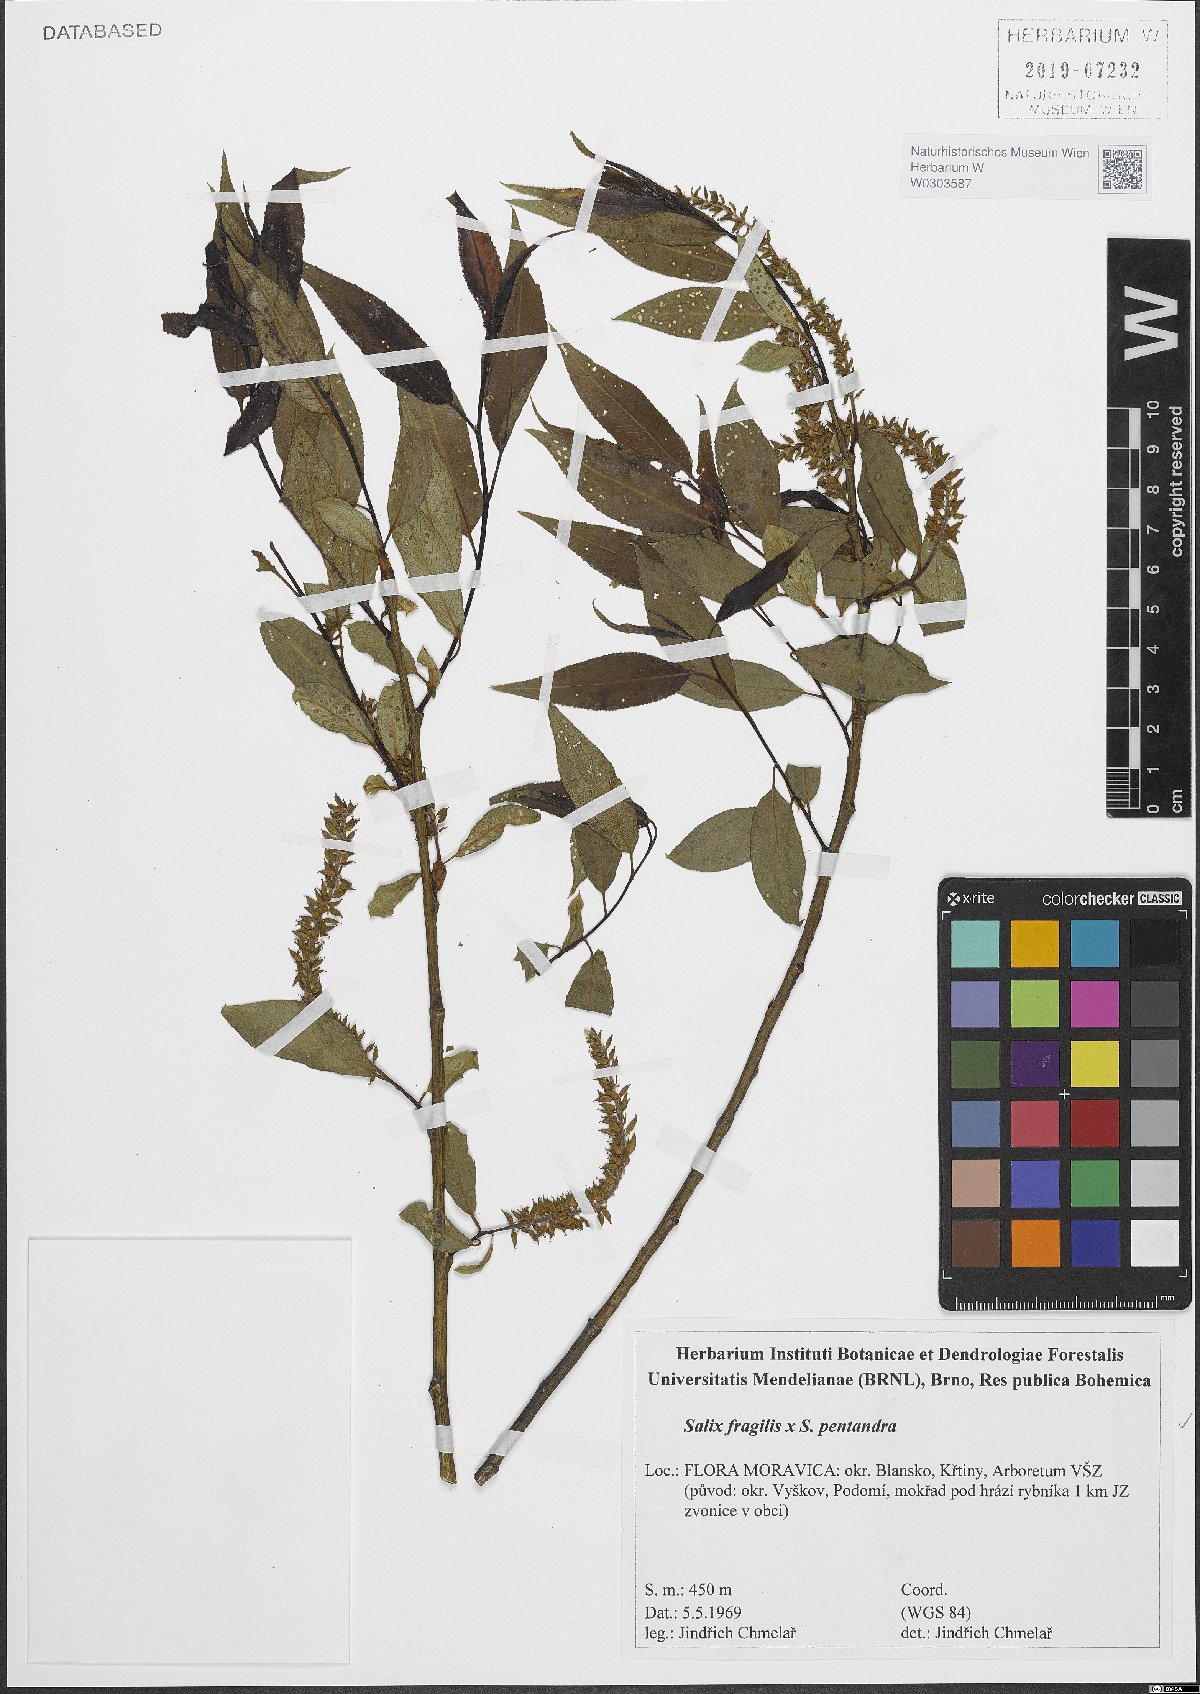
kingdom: Plantae
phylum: Tracheophyta
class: Magnoliopsida
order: Malpighiales
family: Salicaceae
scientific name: Salicaceae
